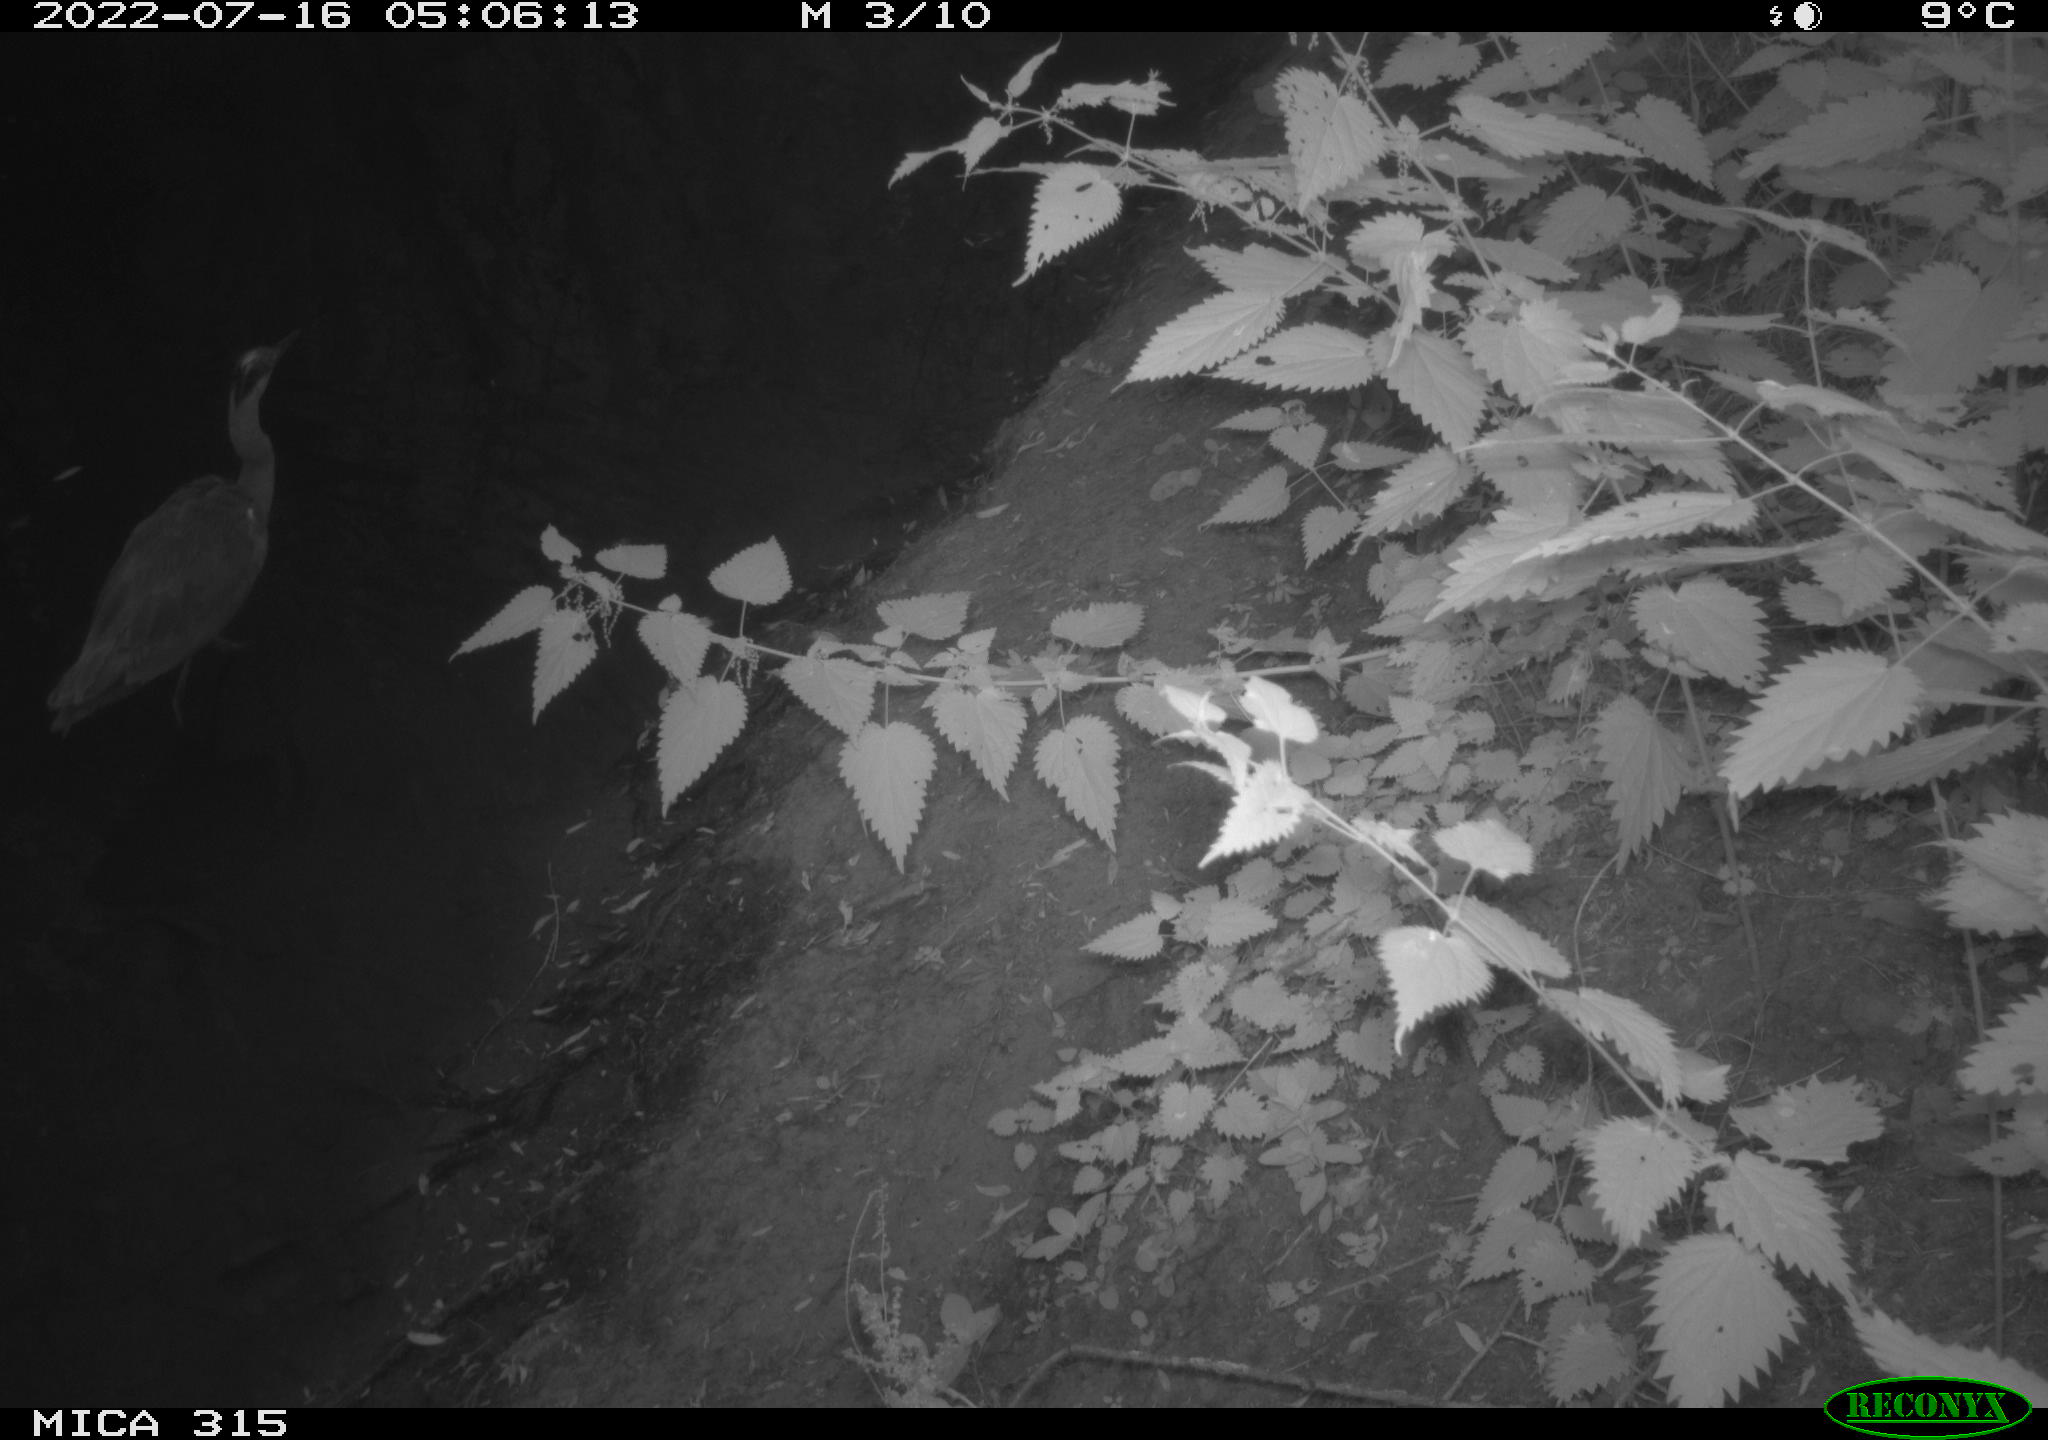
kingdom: Animalia
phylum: Chordata
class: Aves
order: Gruiformes
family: Rallidae
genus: Gallinula
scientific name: Gallinula chloropus
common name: Common moorhen
